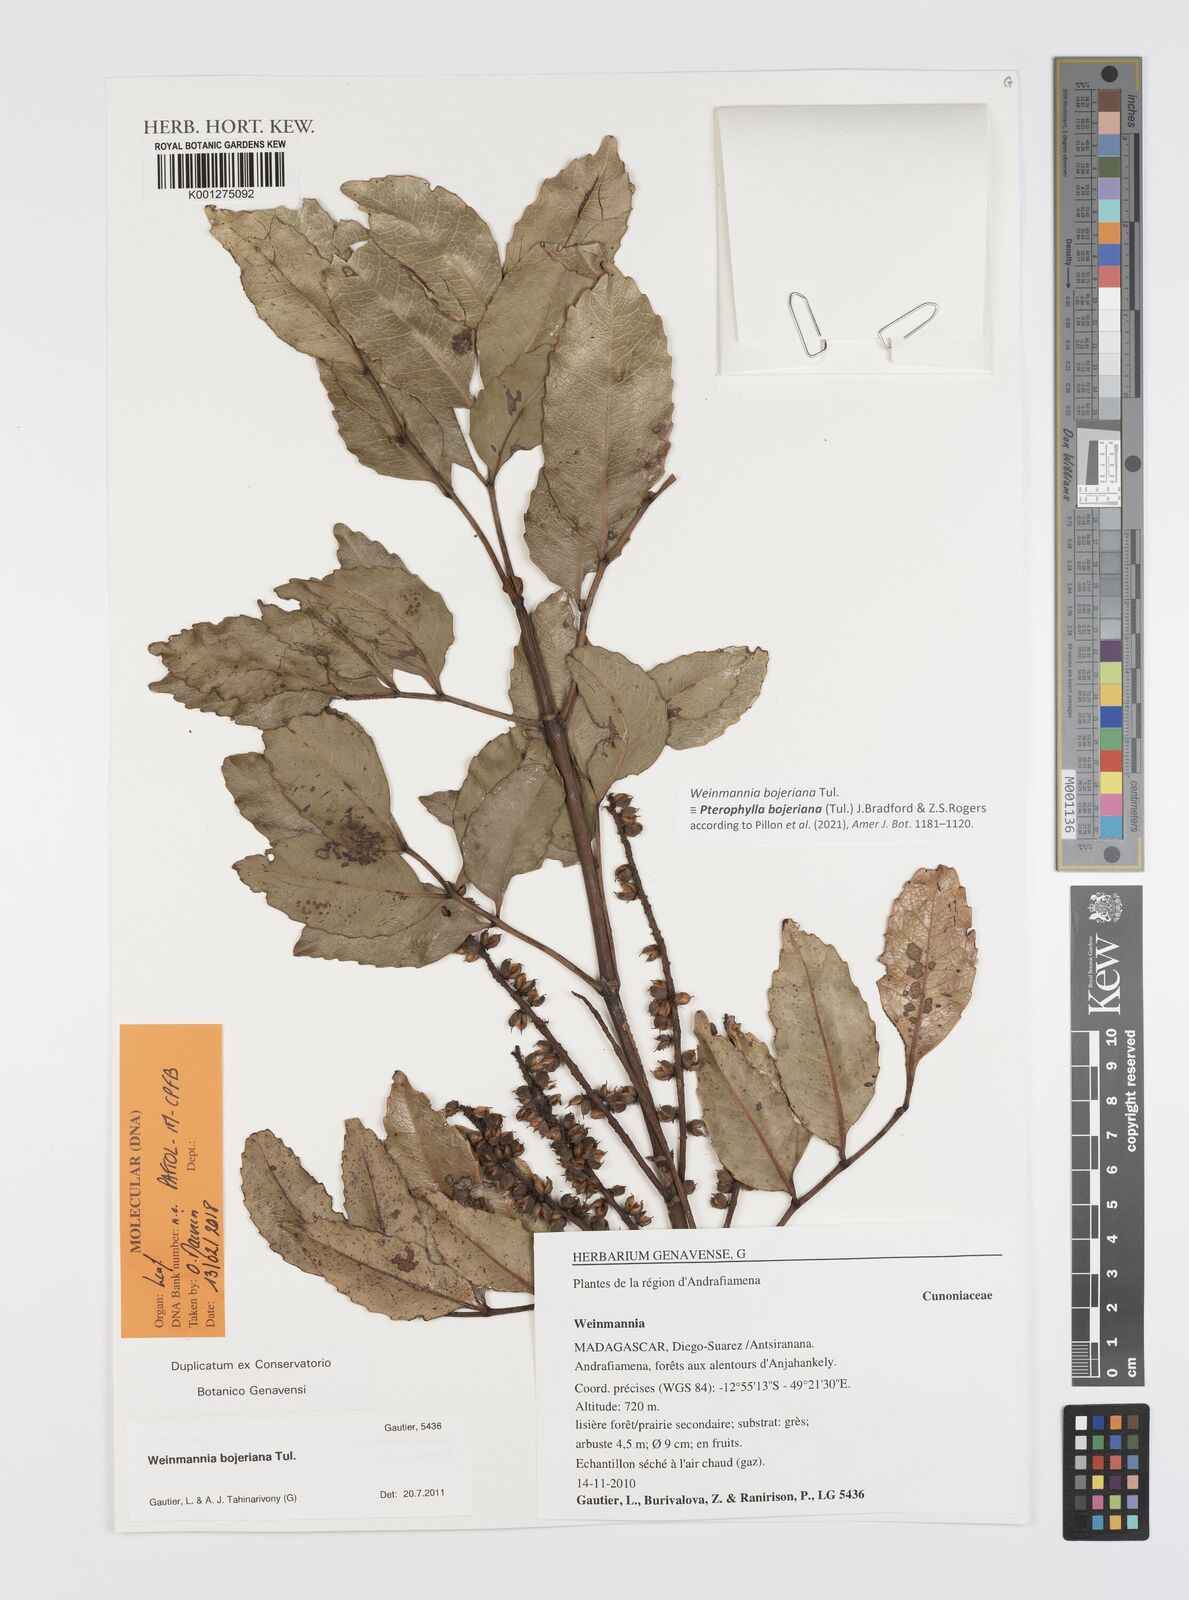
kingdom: Plantae
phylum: Tracheophyta
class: Magnoliopsida
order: Oxalidales
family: Cunoniaceae
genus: Pterophylla
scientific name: Pterophylla bojeriana
